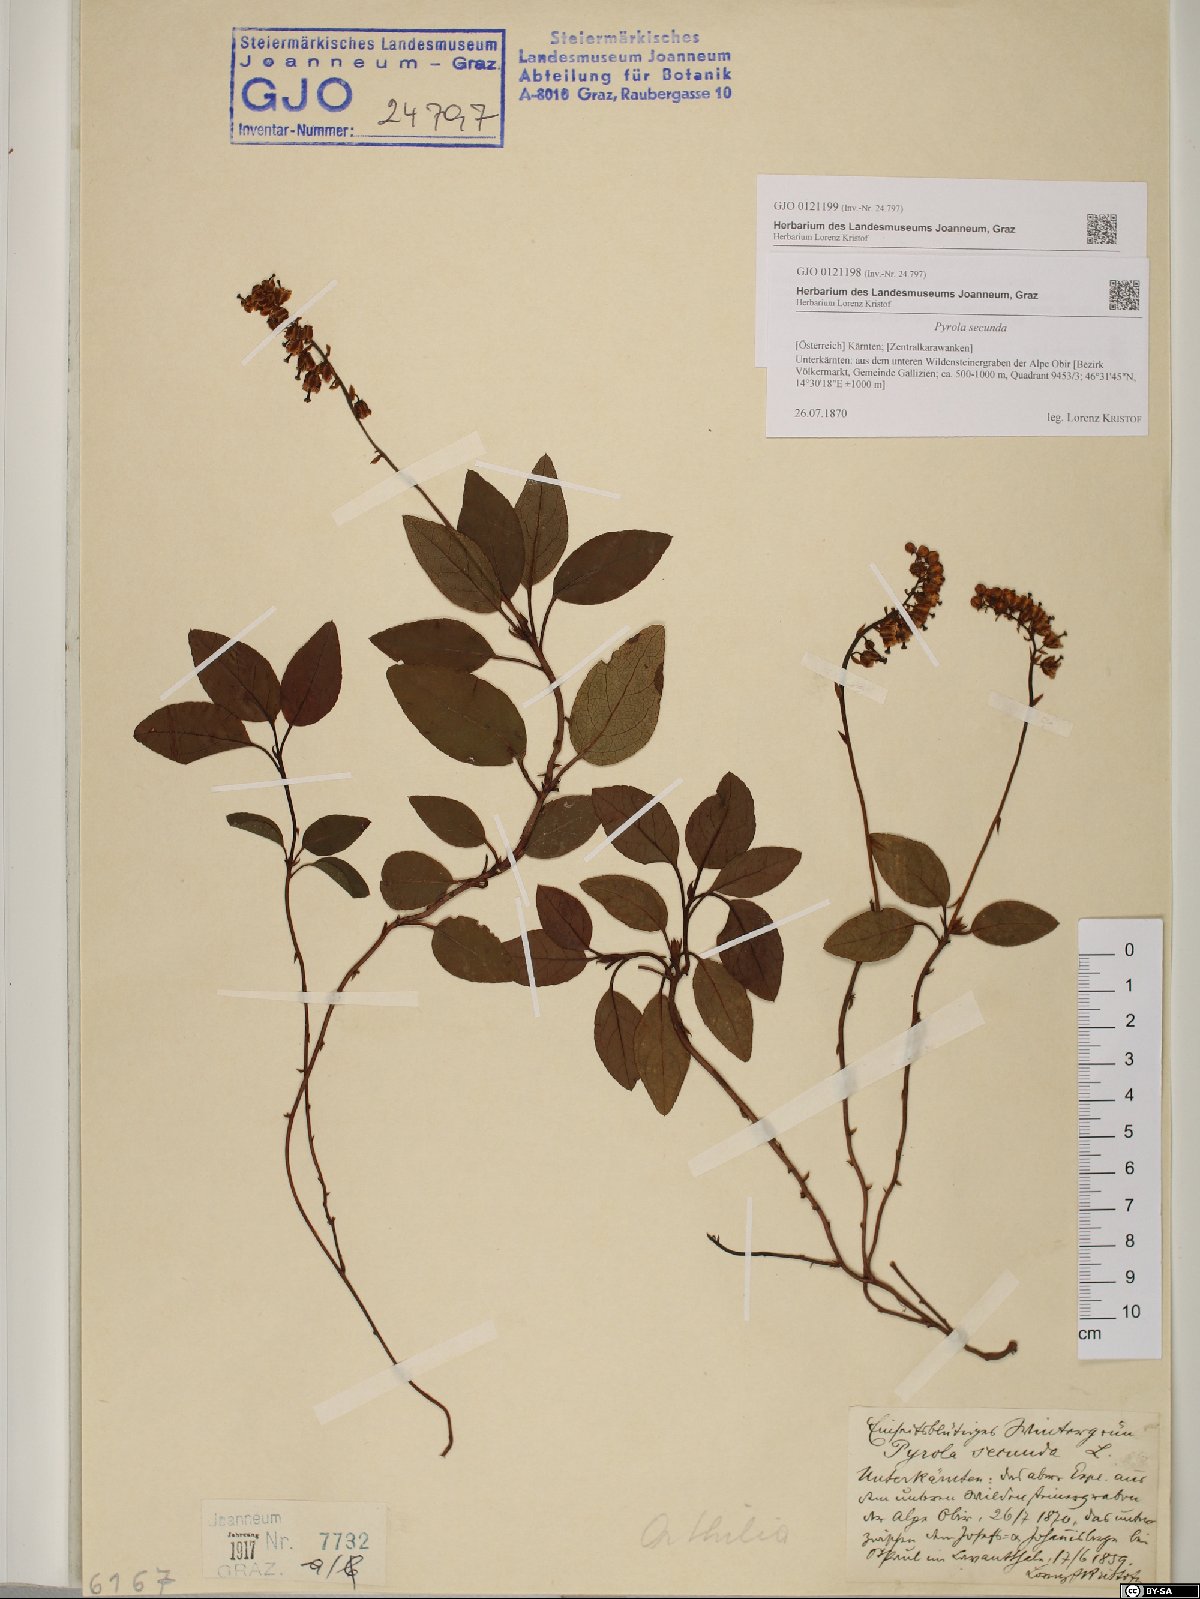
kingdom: Plantae
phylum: Tracheophyta
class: Magnoliopsida
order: Ericales
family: Ericaceae
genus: Orthilia
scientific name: Orthilia secunda
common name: One-sided orthilia
